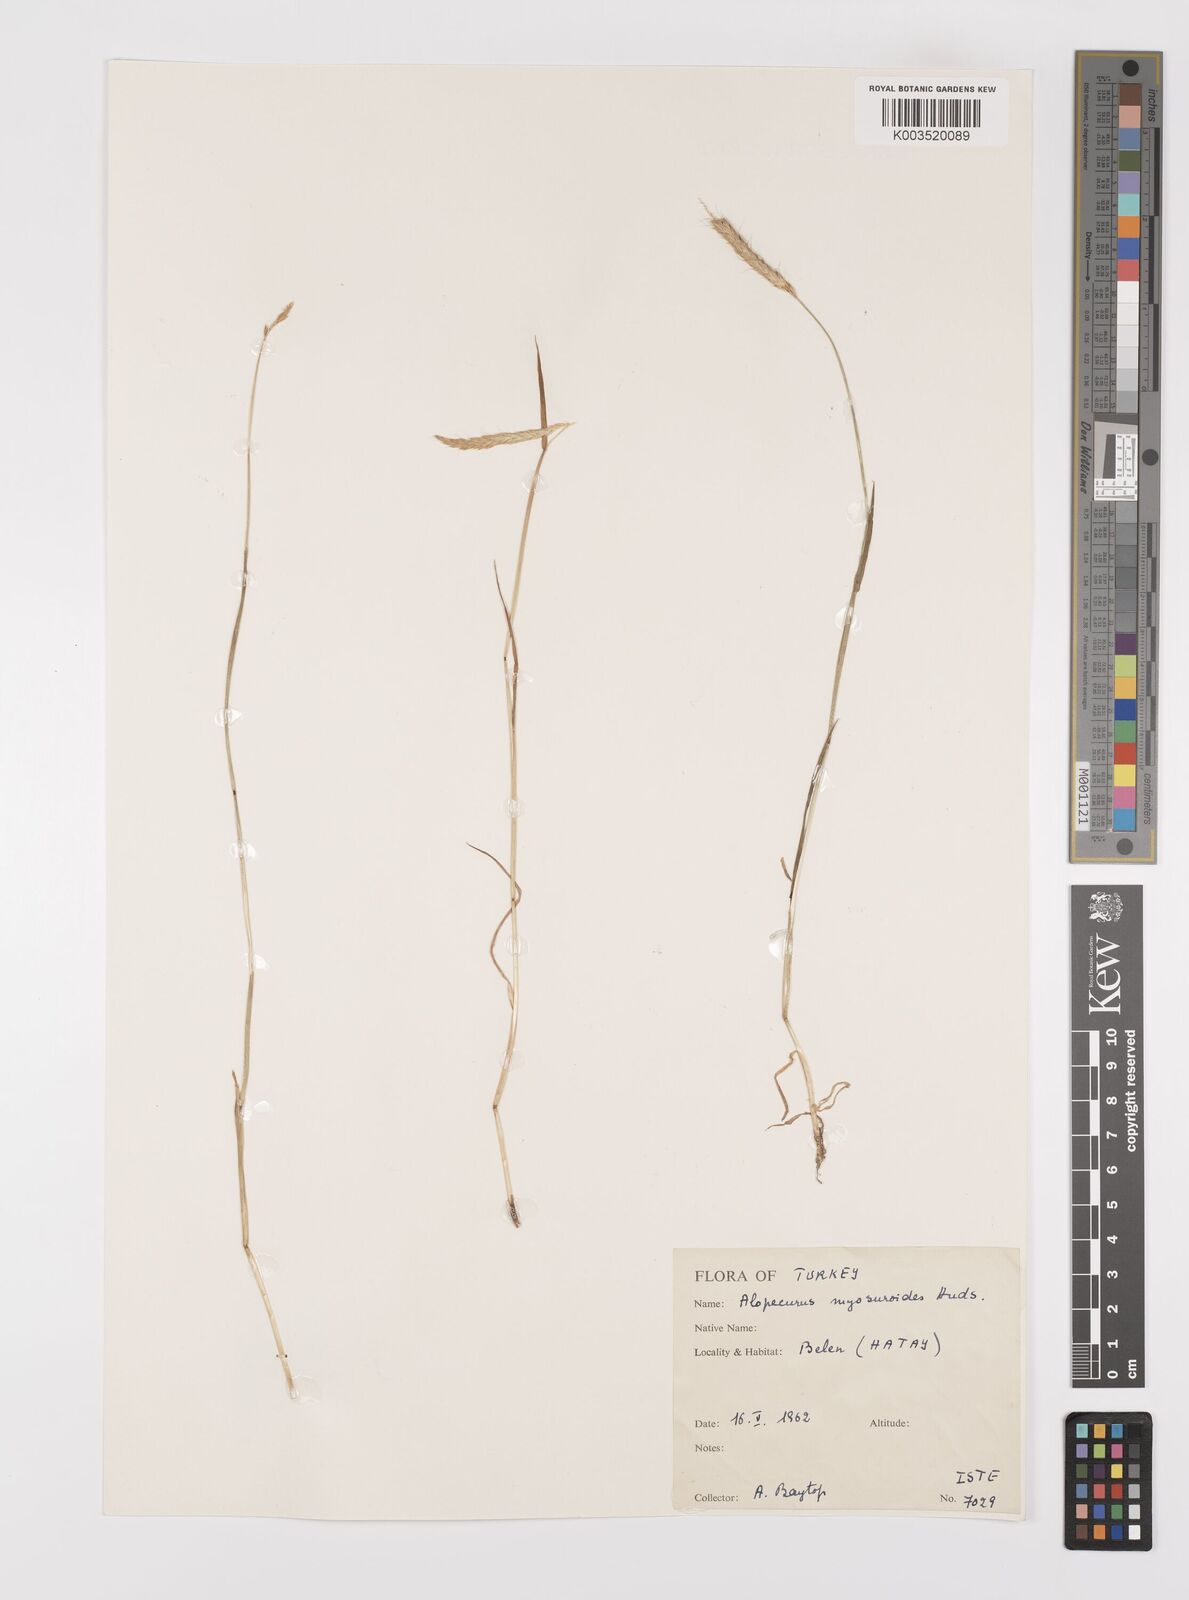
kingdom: Plantae
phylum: Tracheophyta
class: Liliopsida
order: Poales
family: Poaceae
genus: Alopecurus
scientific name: Alopecurus myosuroides
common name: Black-grass
